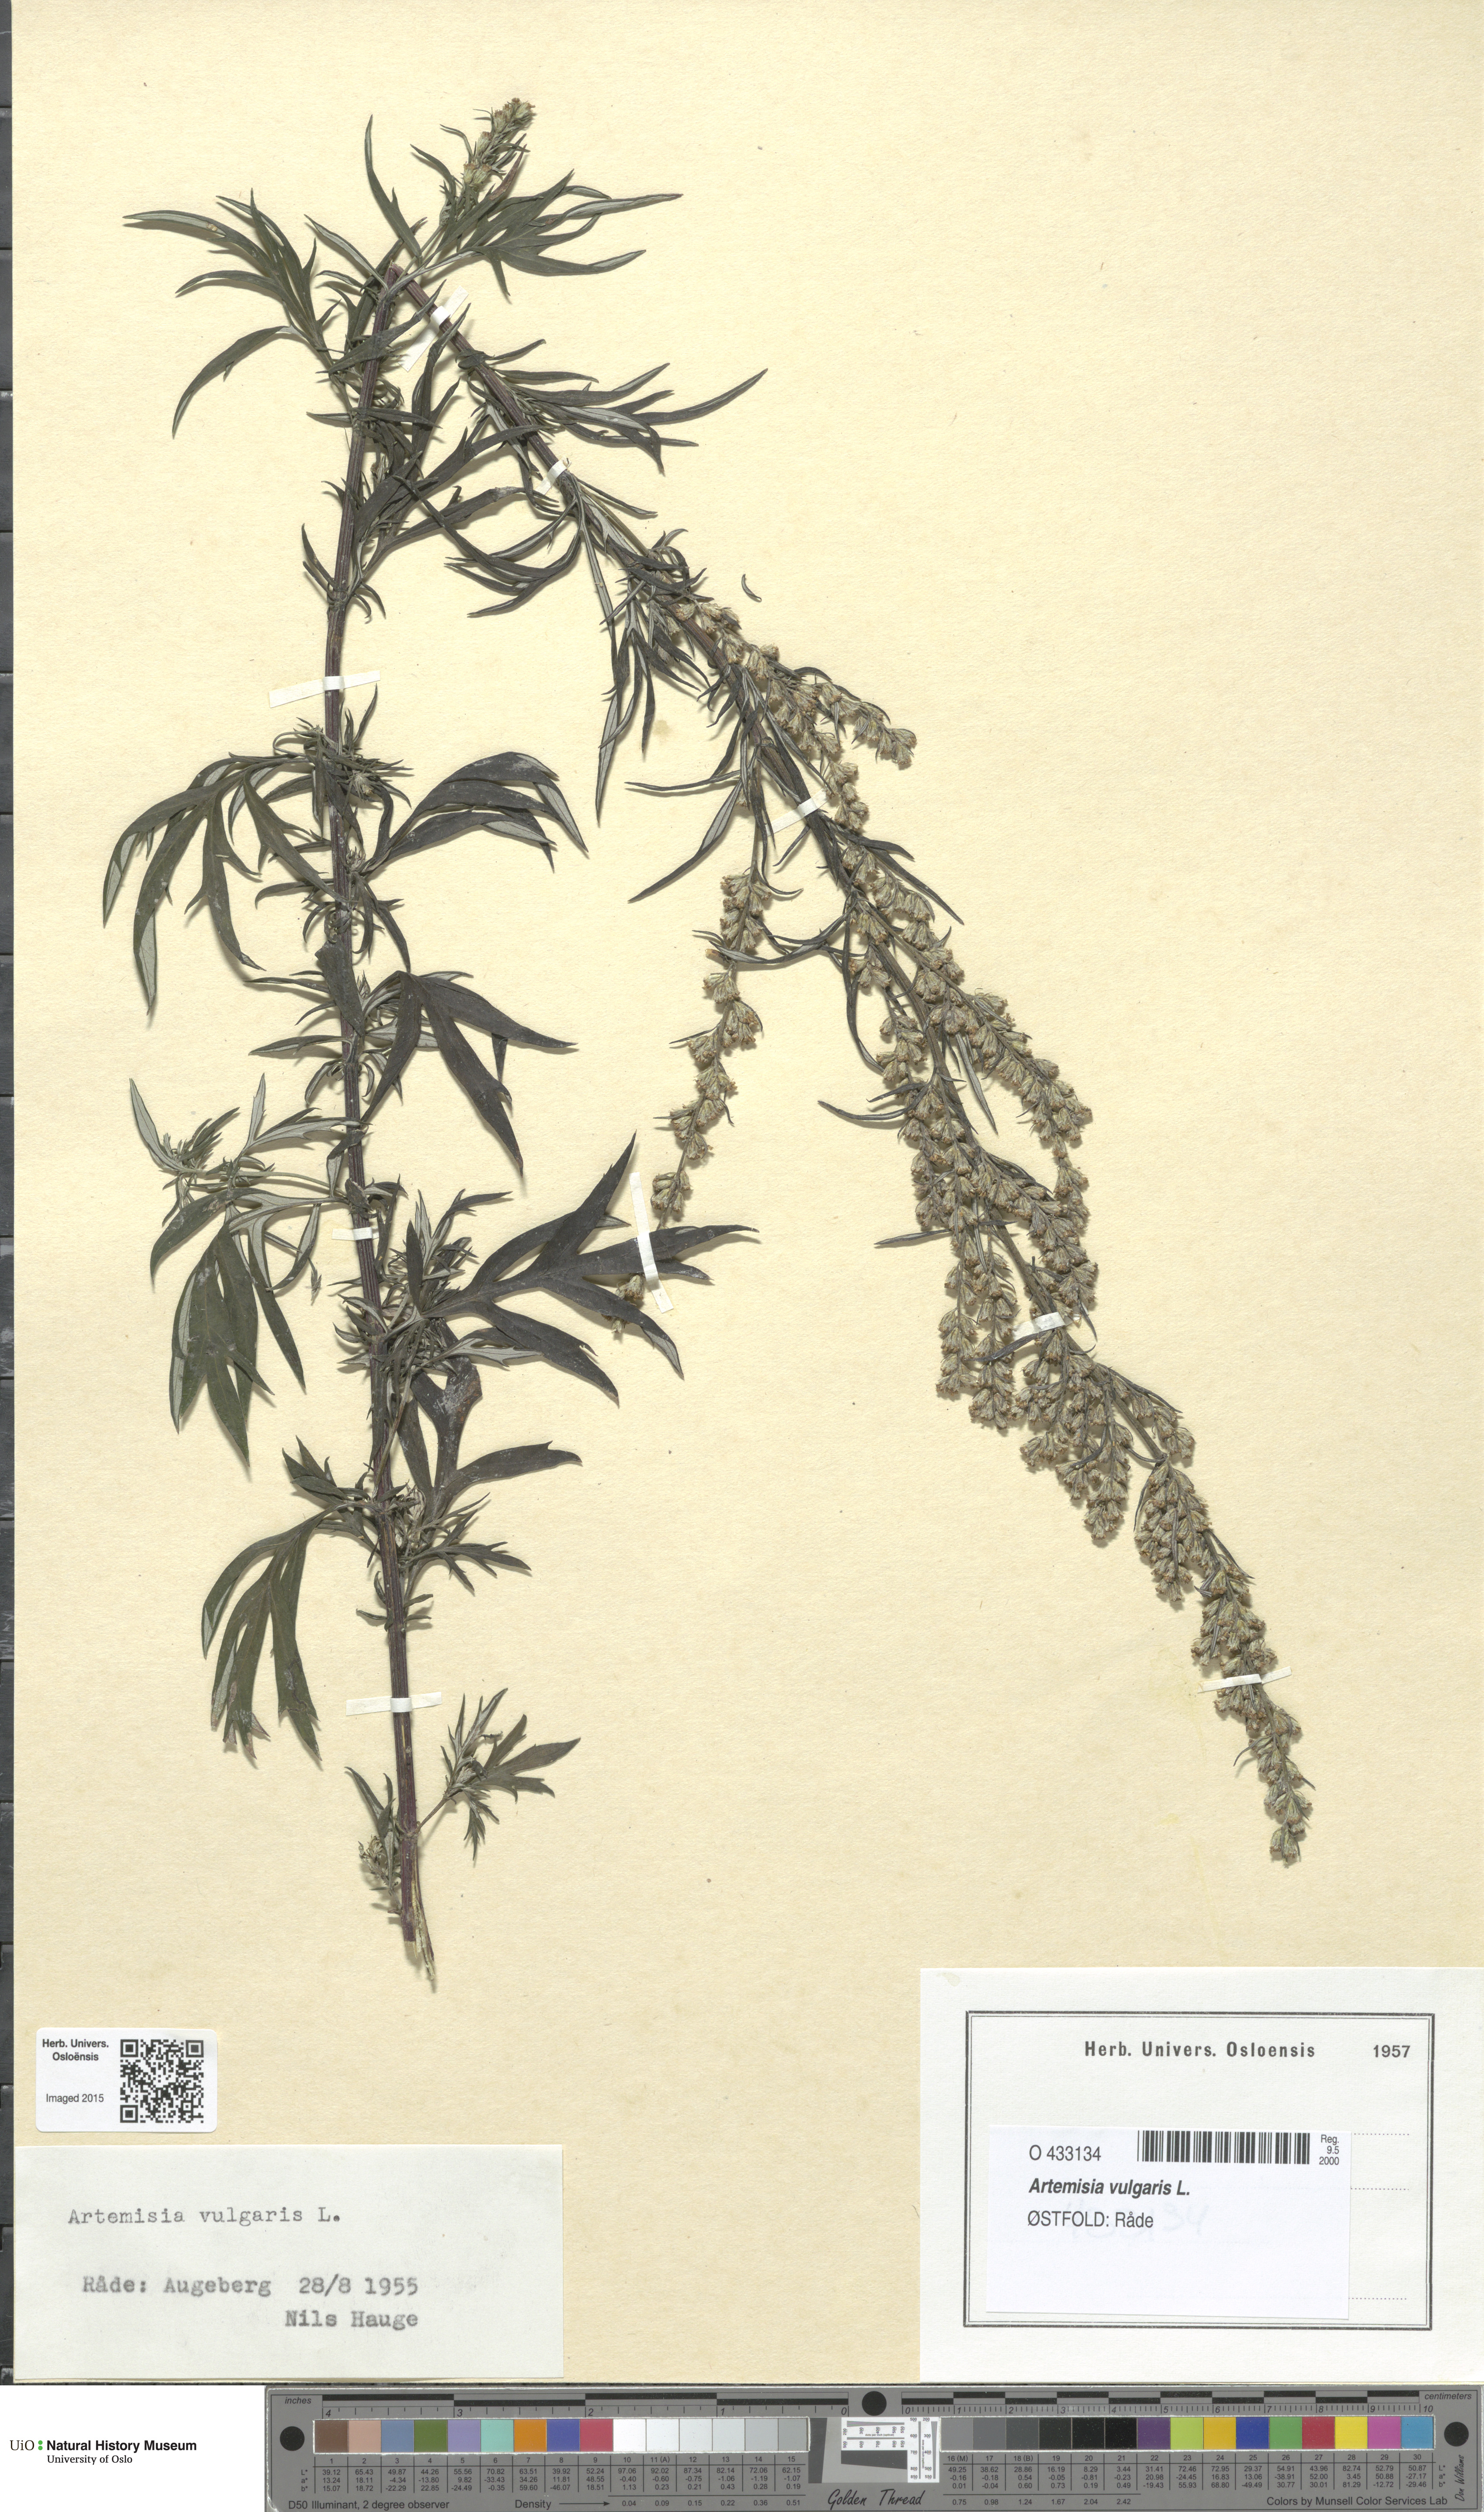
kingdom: Plantae
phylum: Tracheophyta
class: Magnoliopsida
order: Asterales
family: Asteraceae
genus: Artemisia
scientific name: Artemisia vulgaris
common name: Mugwort
